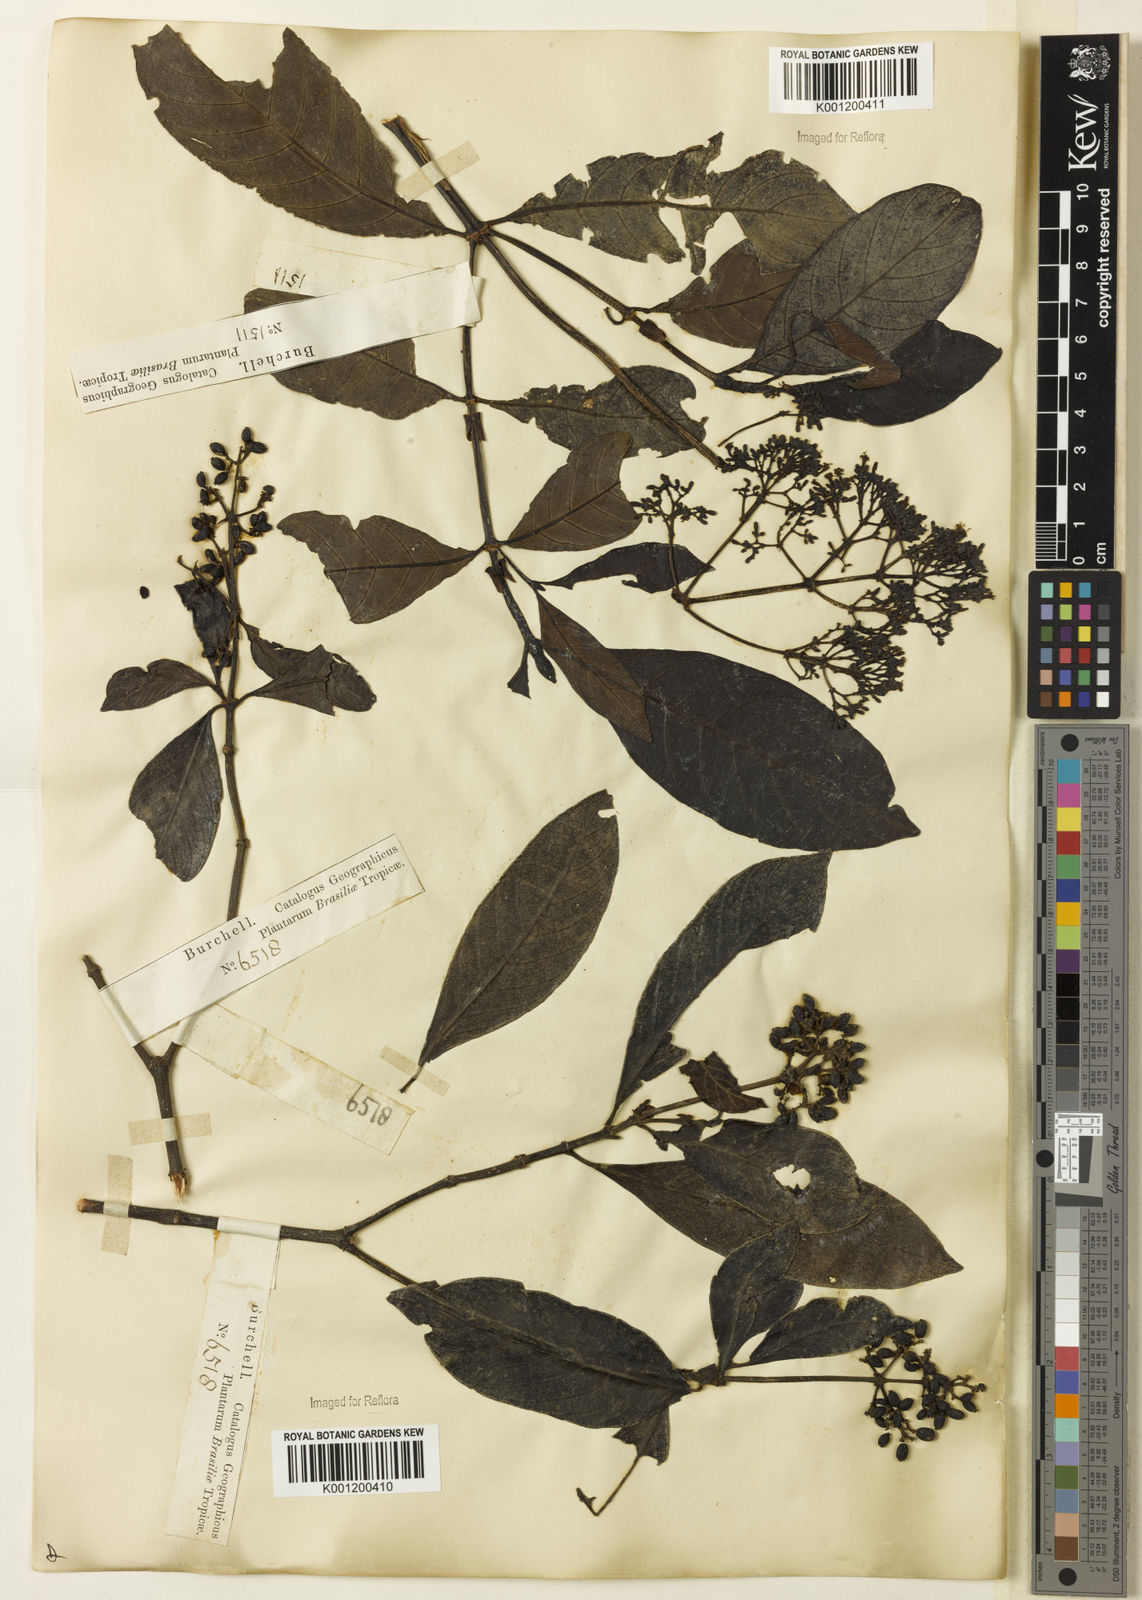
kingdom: Plantae
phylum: Tracheophyta
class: Magnoliopsida
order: Gentianales
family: Rubiaceae
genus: Psychotria
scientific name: Psychotria carthagenensis
